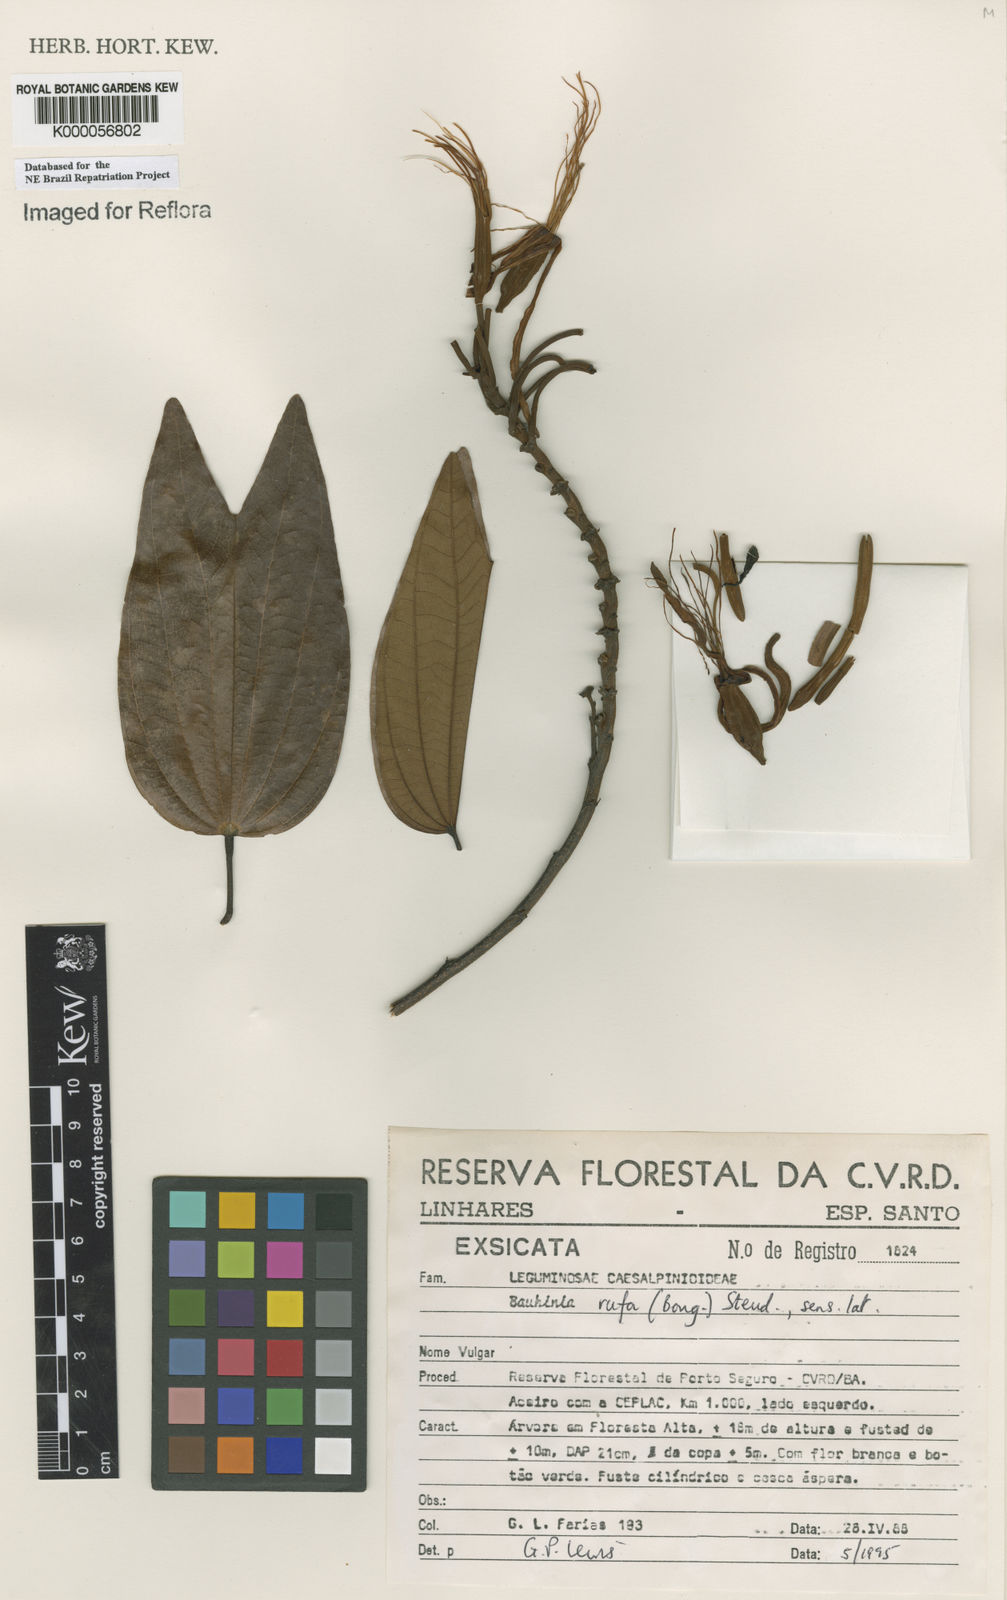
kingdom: Plantae
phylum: Tracheophyta
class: Magnoliopsida
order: Fabales
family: Fabaceae
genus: Bauhinia
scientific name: Bauhinia rufa
